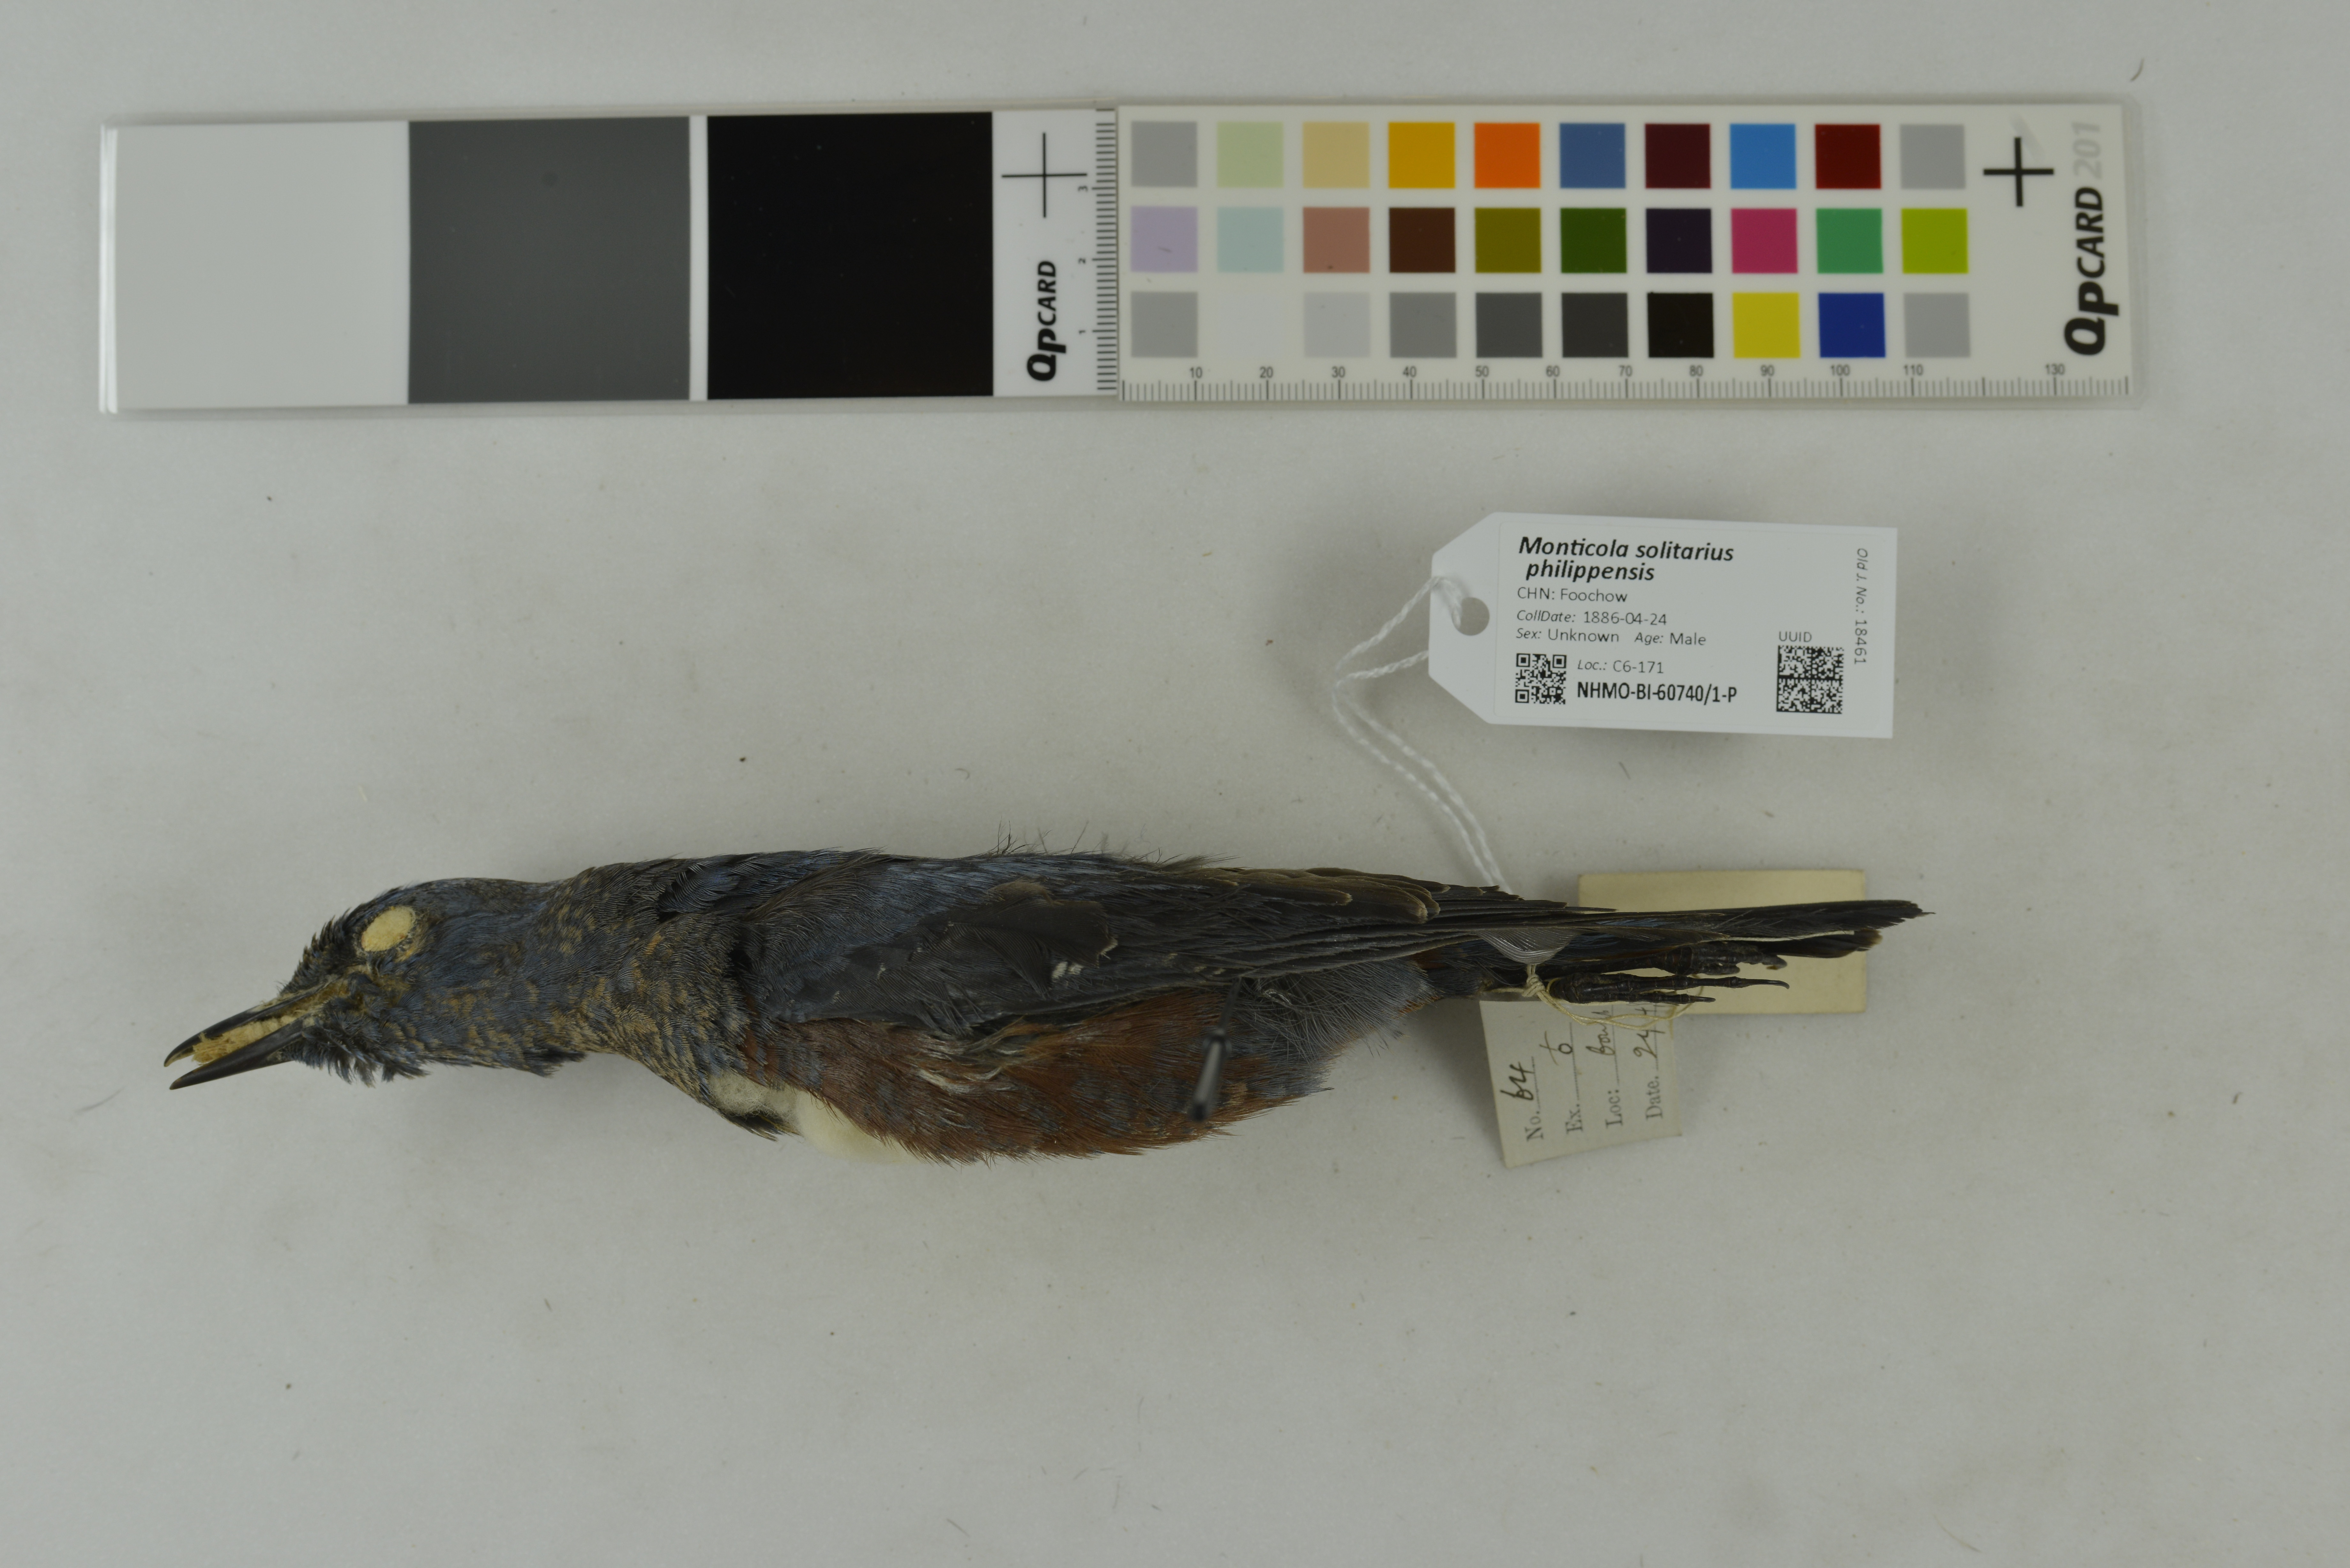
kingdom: Animalia
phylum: Chordata
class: Aves
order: Passeriformes
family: Muscicapidae
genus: Monticola
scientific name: Monticola solitarius
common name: Blue rock thrush
